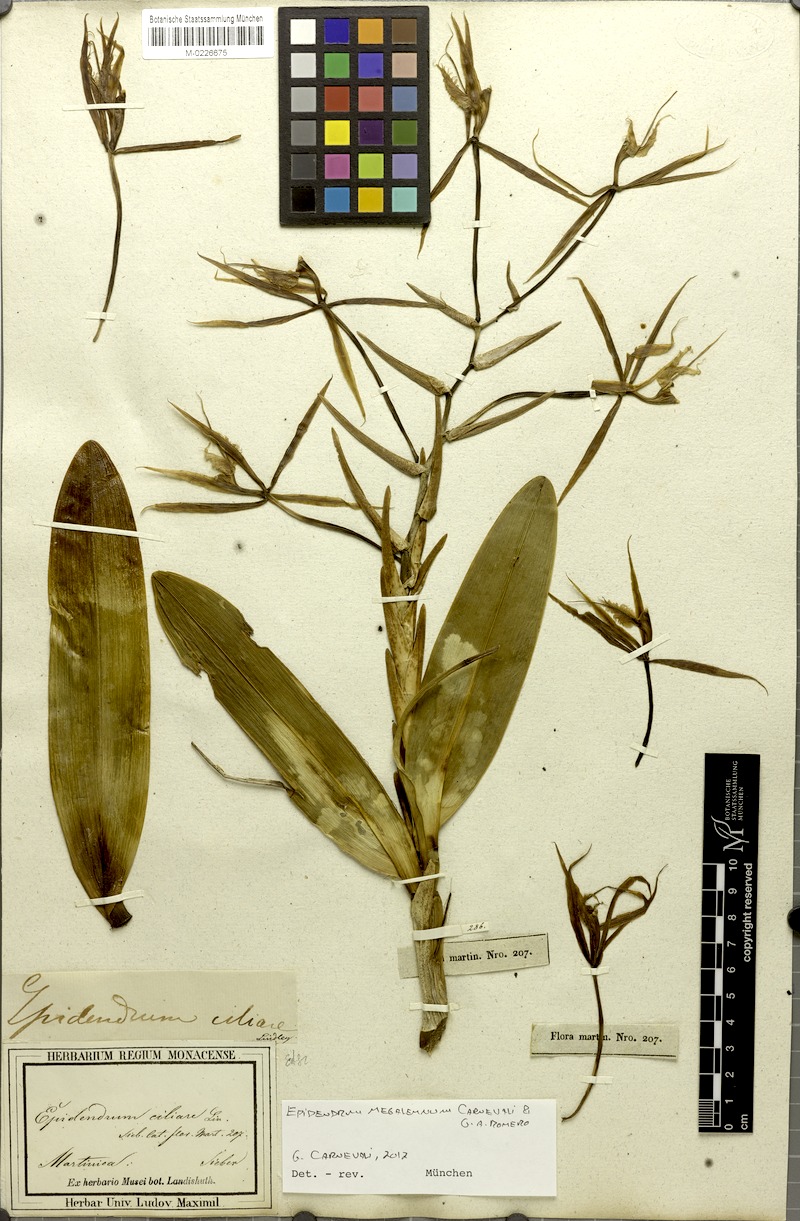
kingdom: Plantae
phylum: Tracheophyta
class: Liliopsida
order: Asparagales
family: Orchidaceae
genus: Epidendrum
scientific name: Epidendrum megalemmum
